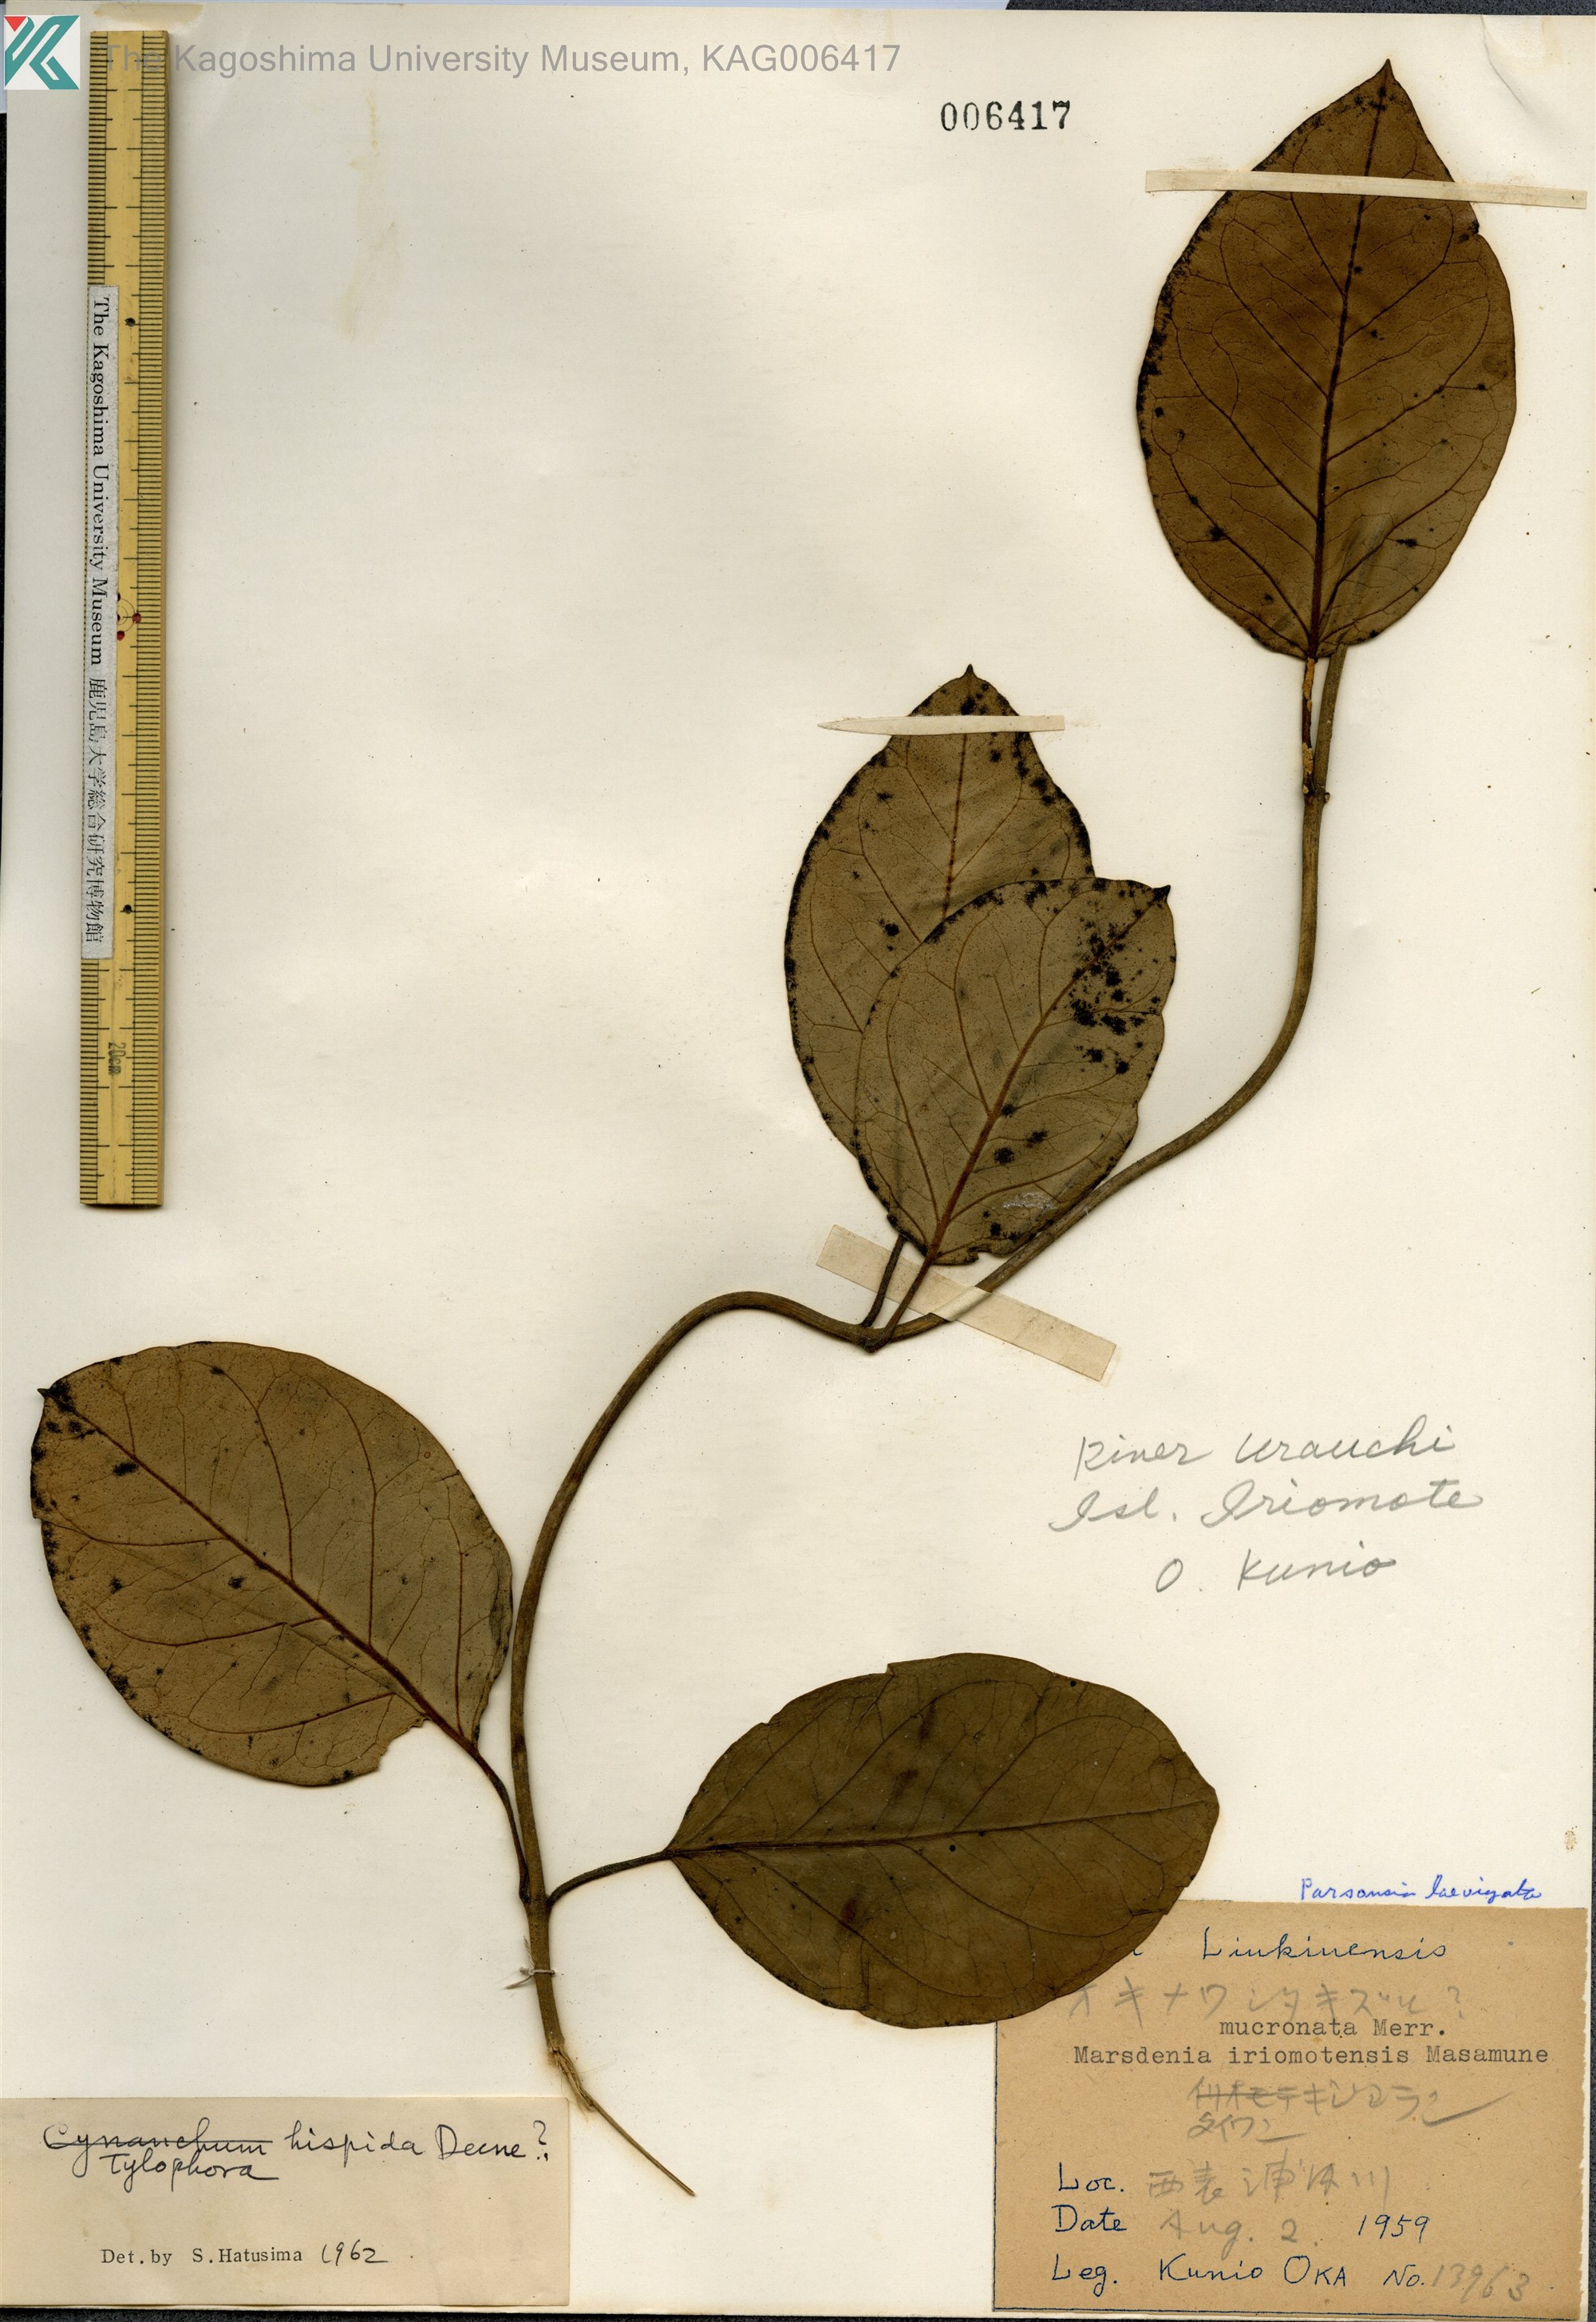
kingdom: Plantae
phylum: Tracheophyta
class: Magnoliopsida
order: Gentianales
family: Apocynaceae
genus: Vincetoxicum
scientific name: Vincetoxicum Tylophora tanakae
